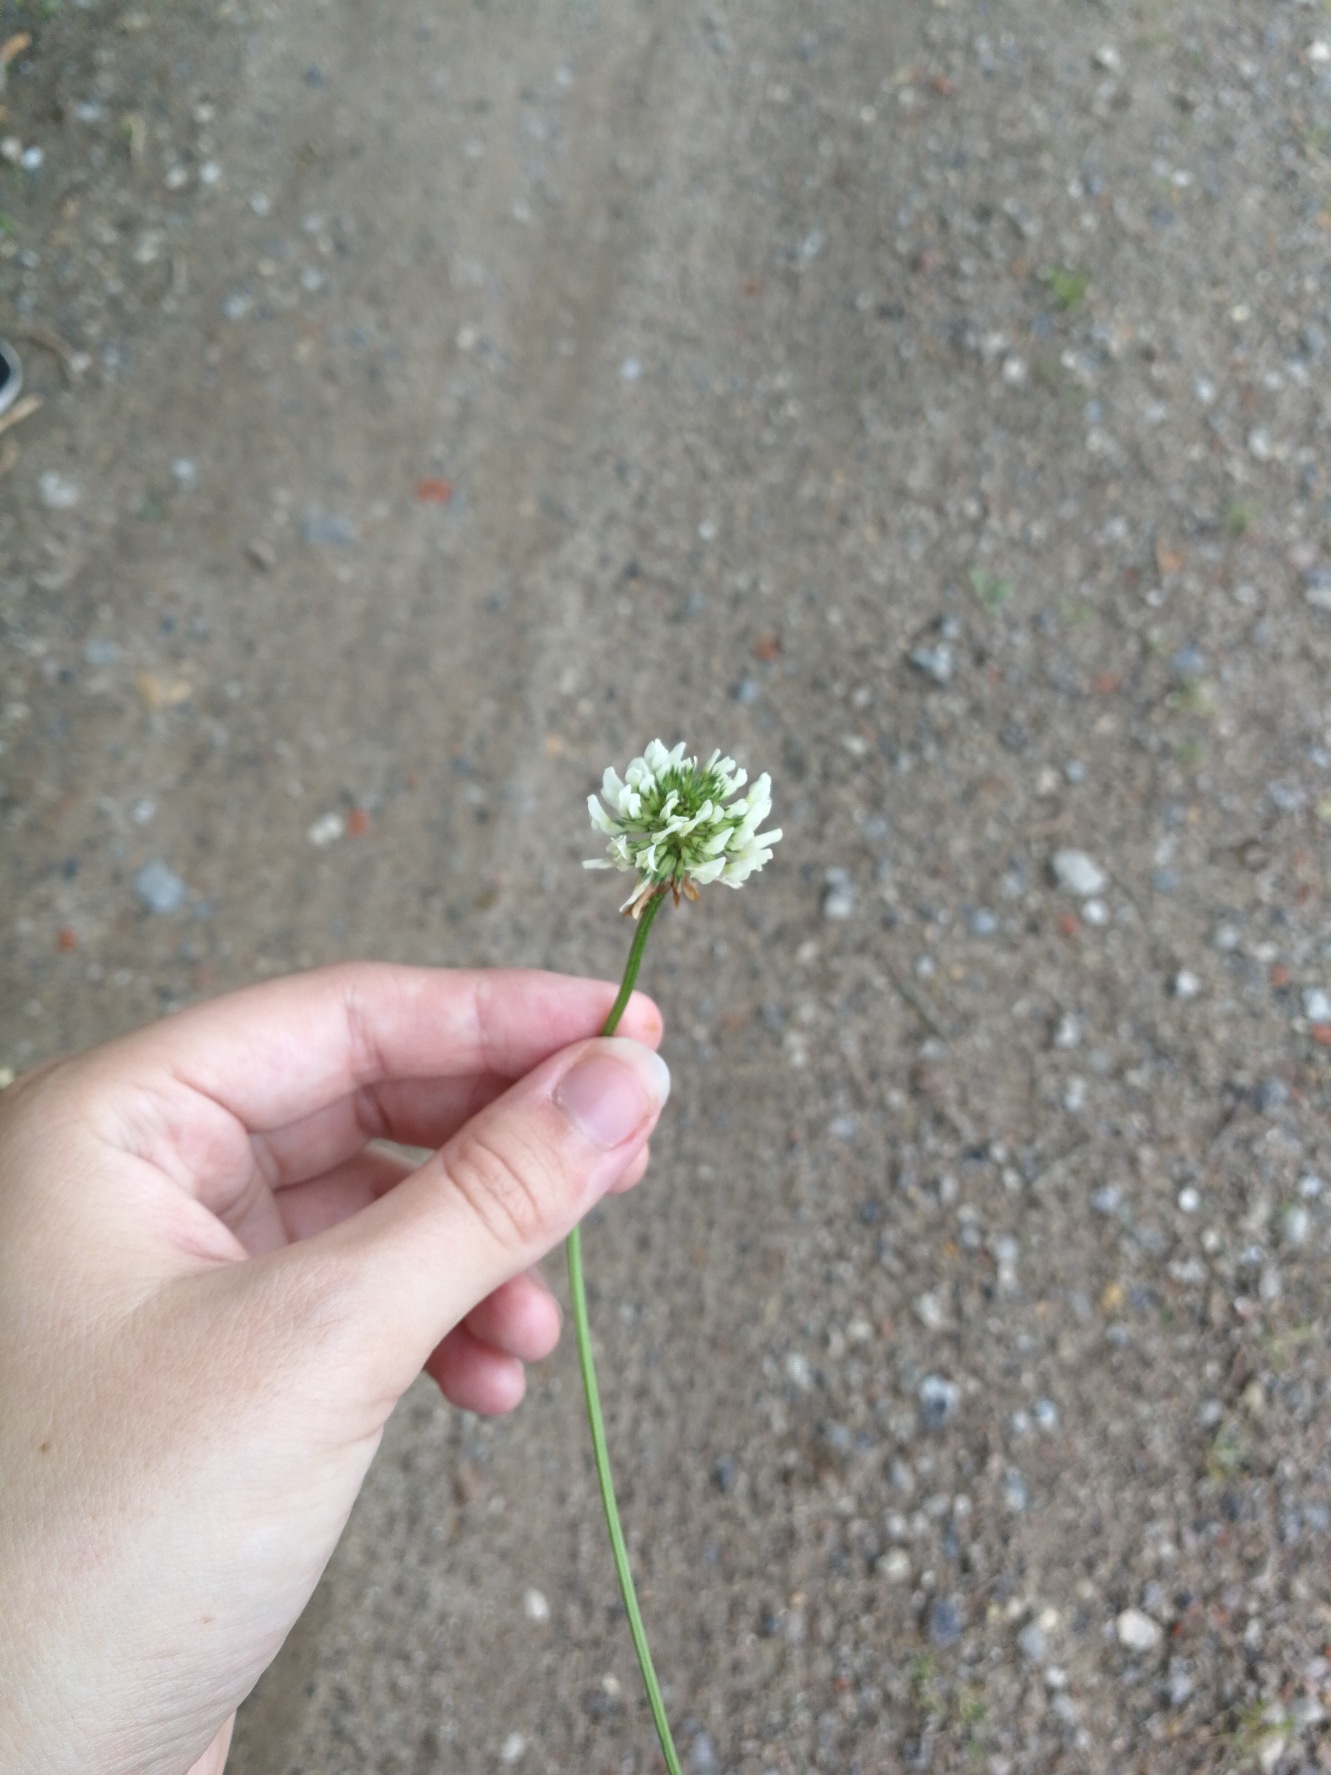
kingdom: Plantae
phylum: Tracheophyta
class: Magnoliopsida
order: Fabales
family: Fabaceae
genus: Trifolium
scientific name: Trifolium repens
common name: Hvid-kløver
